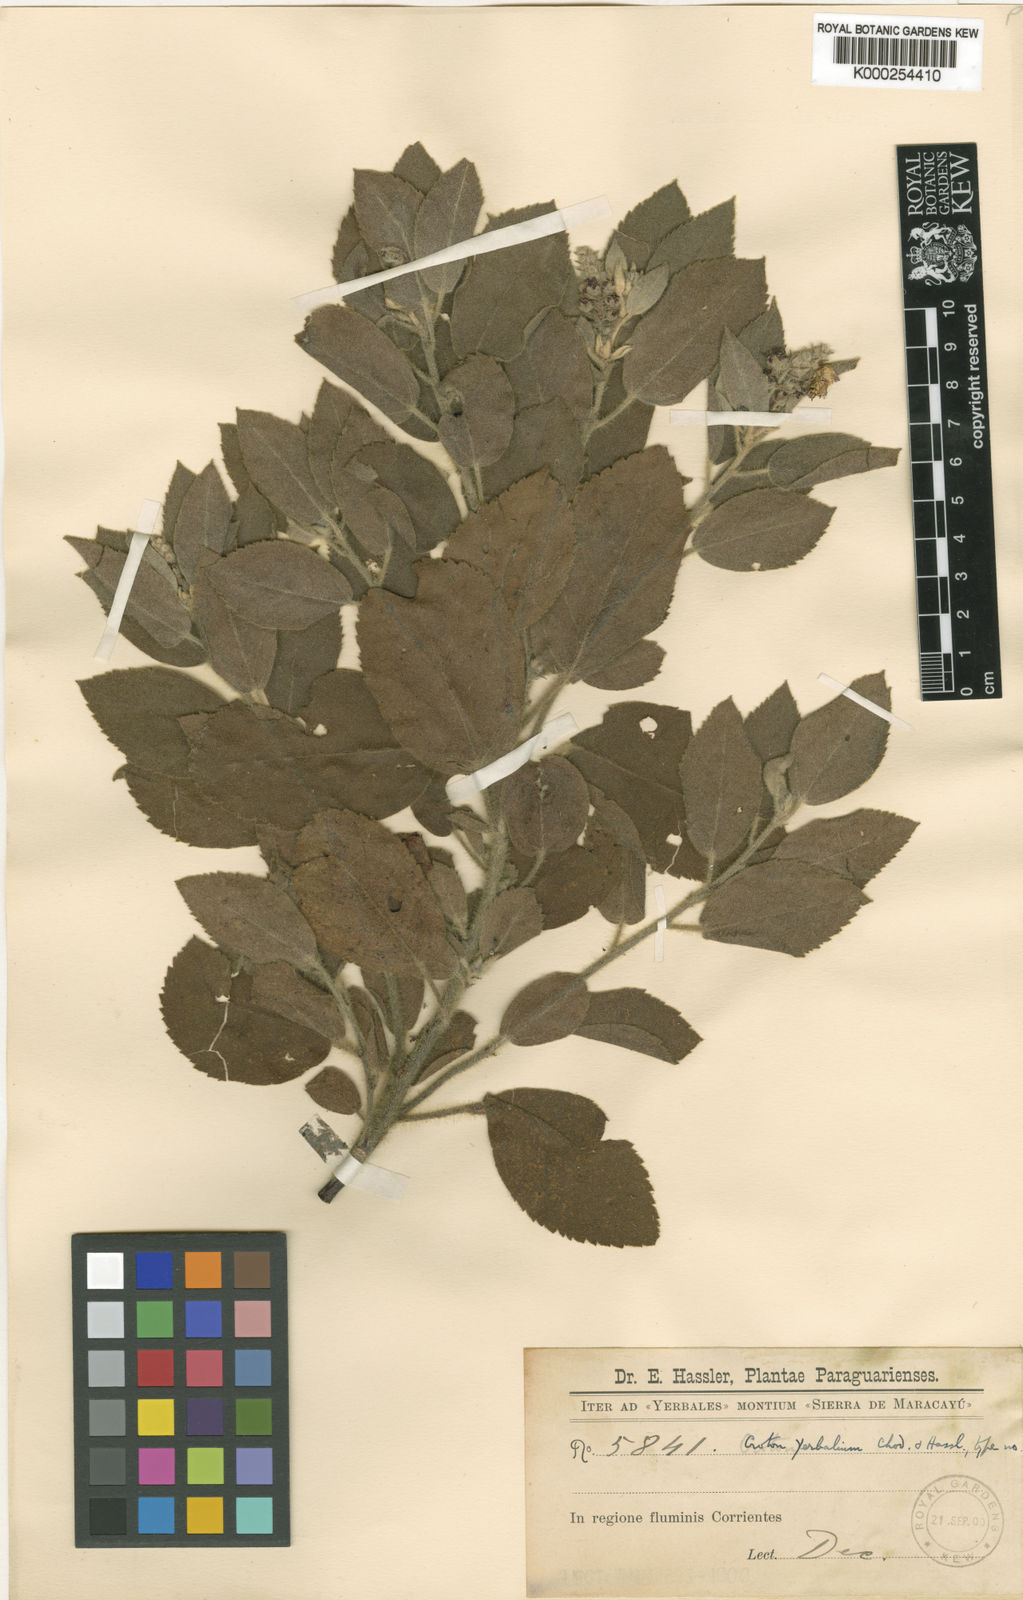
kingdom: Plantae
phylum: Tracheophyta
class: Magnoliopsida
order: Malpighiales
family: Euphorbiaceae
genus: Croton
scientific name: Croton yerbalium
